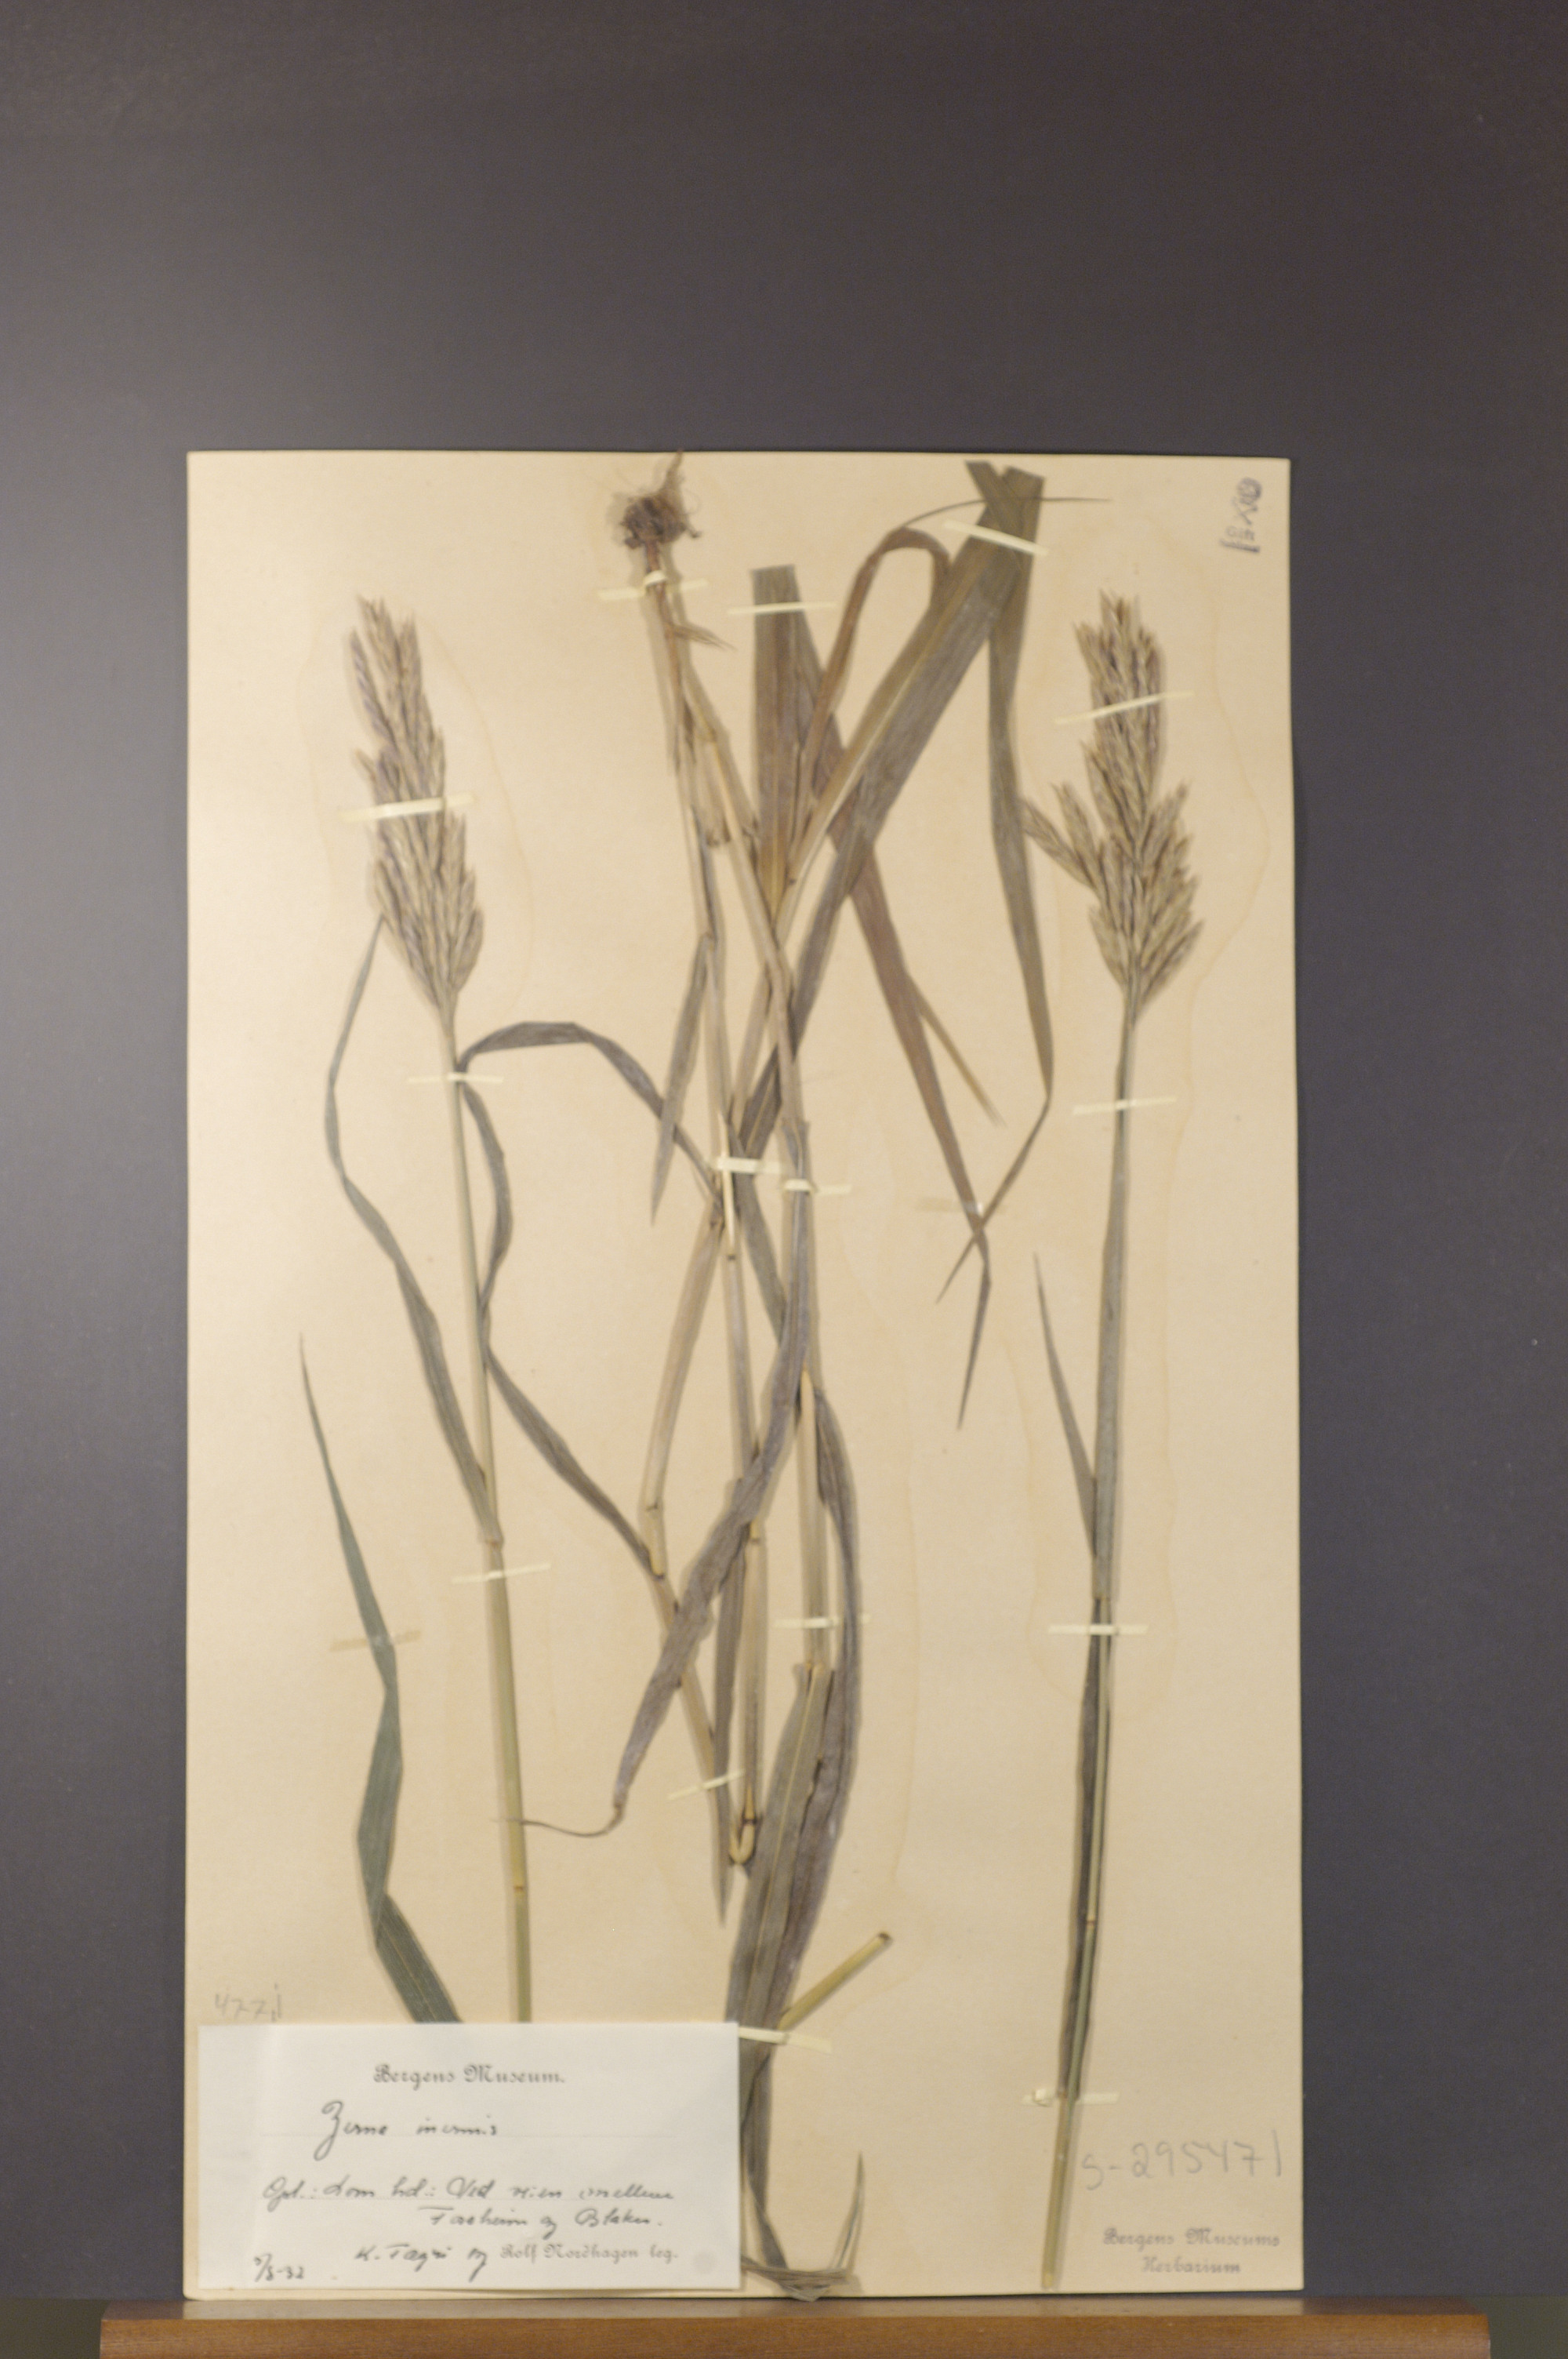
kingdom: Plantae
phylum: Tracheophyta
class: Liliopsida
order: Poales
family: Poaceae
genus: Bromus
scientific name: Bromus inermis
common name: Smooth brome
